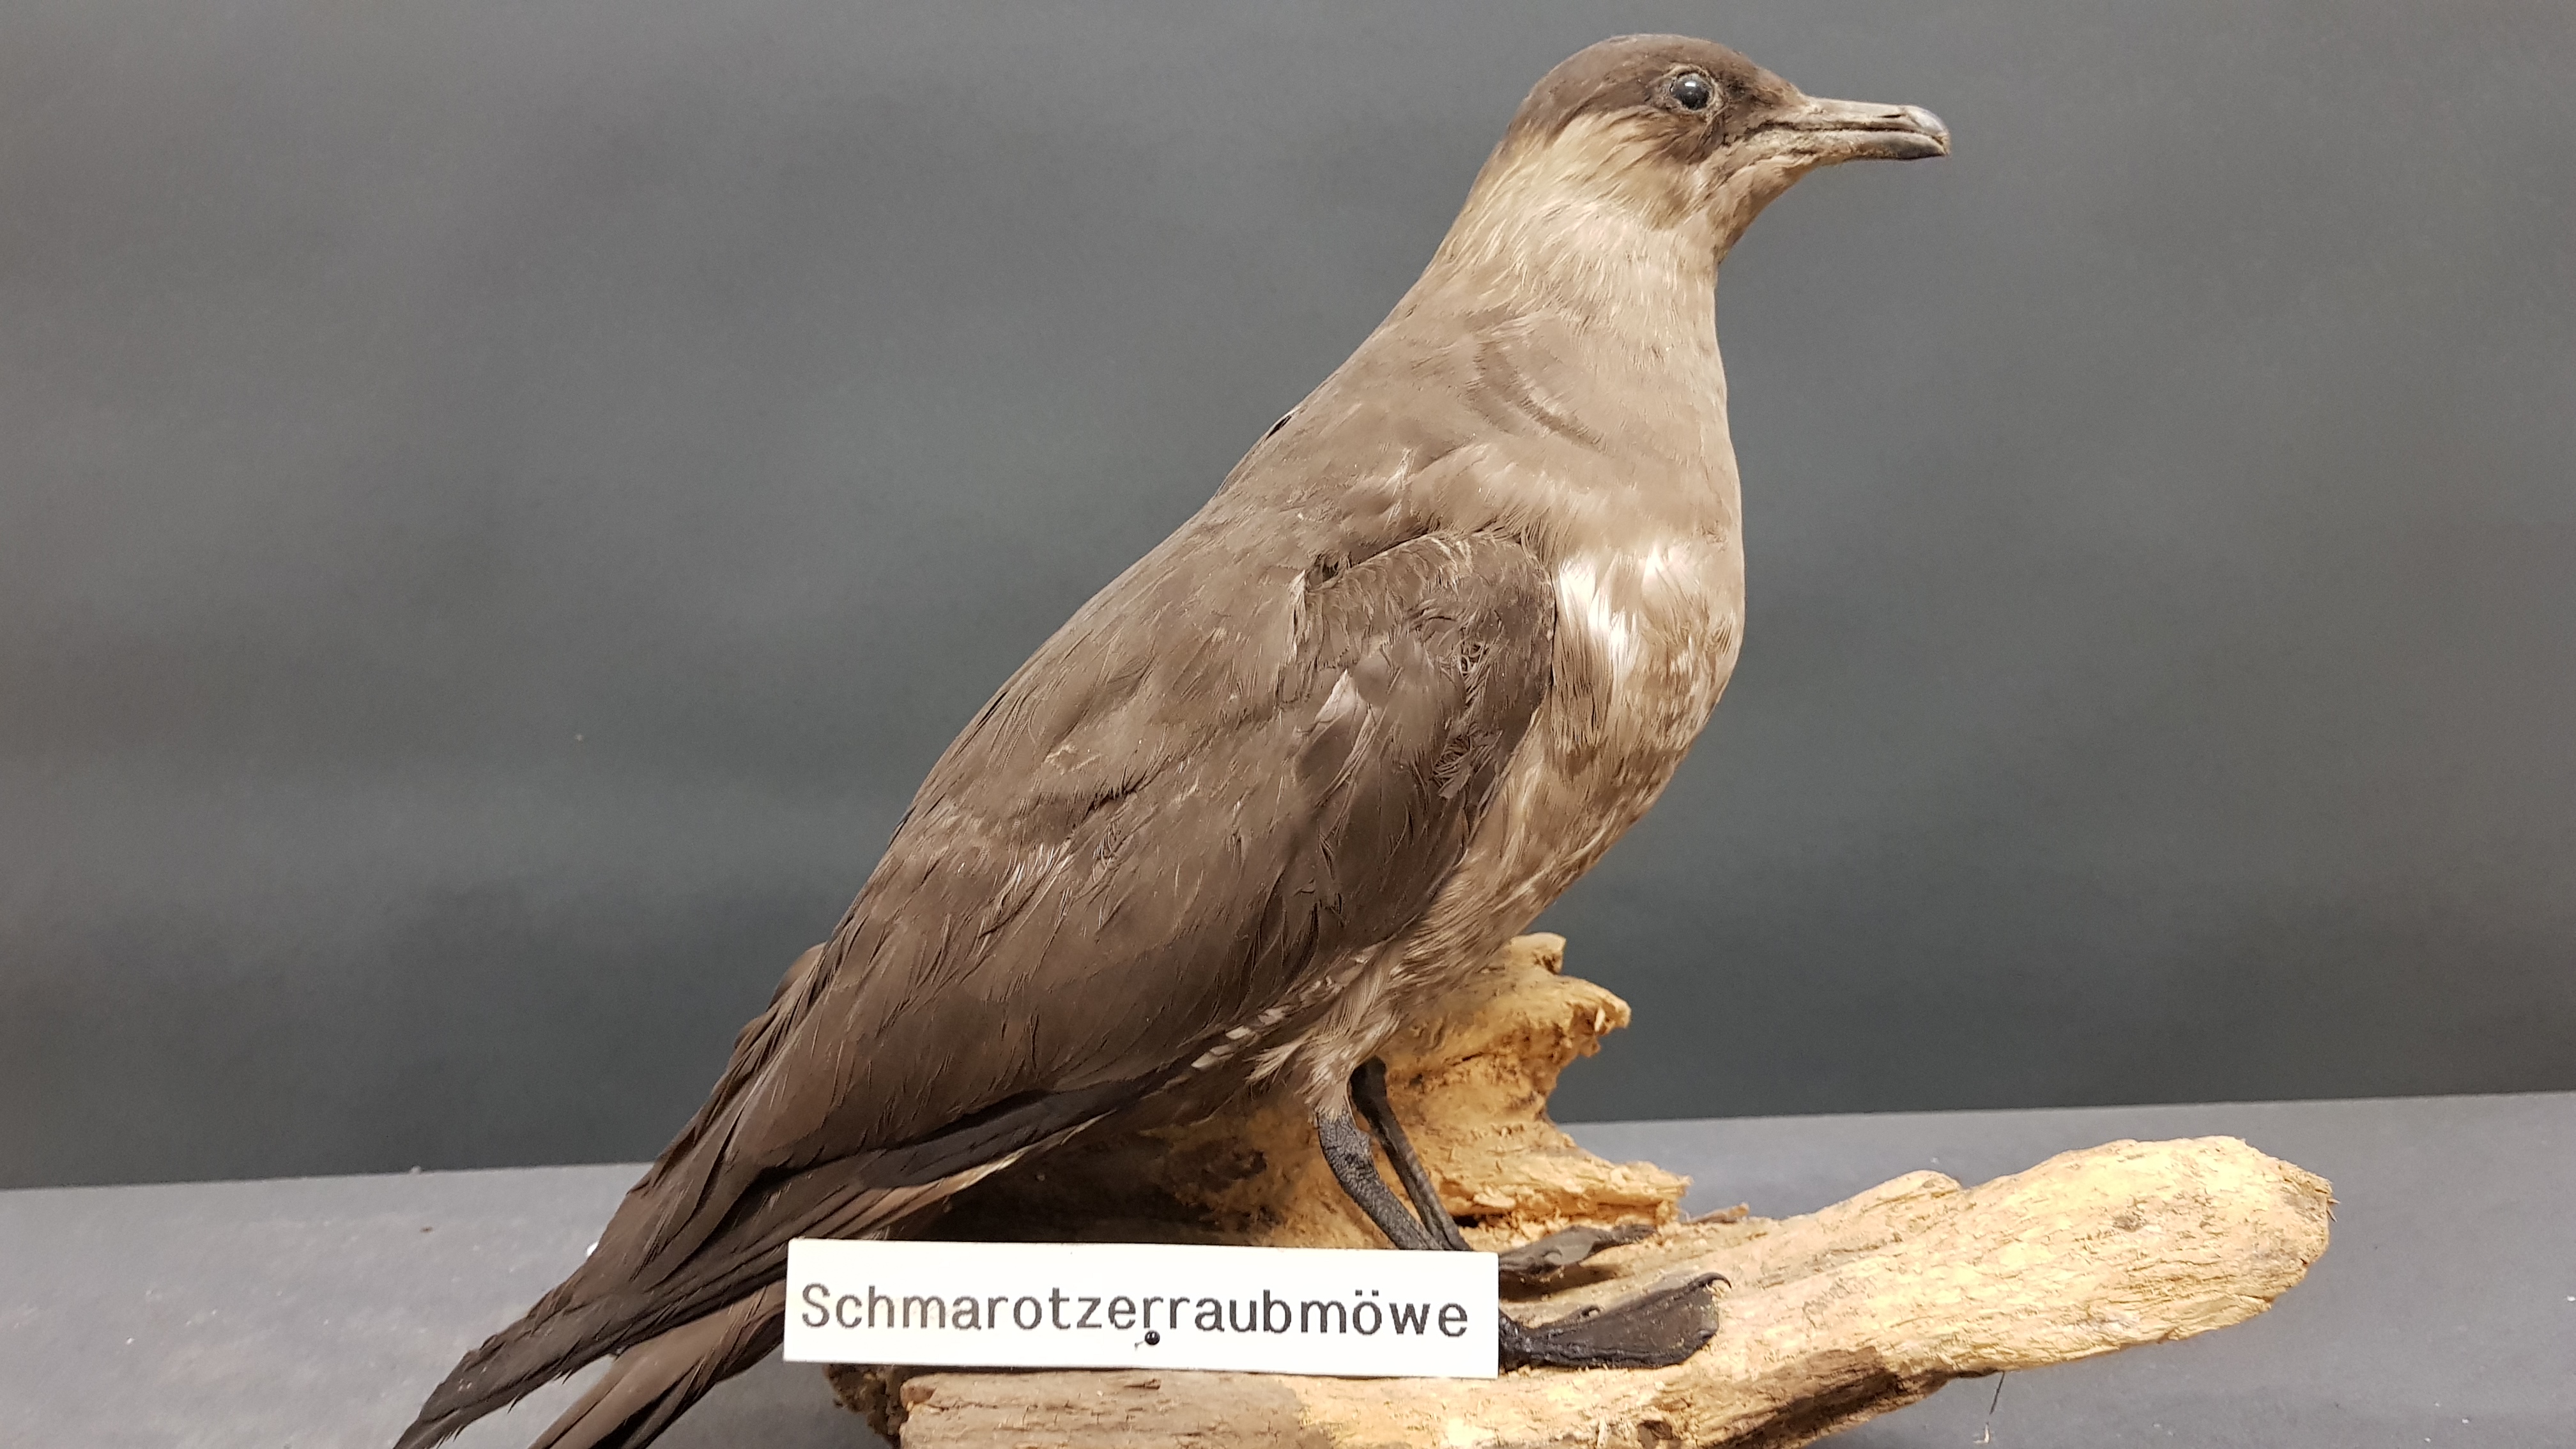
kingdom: Animalia
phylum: Chordata
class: Aves
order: Charadriiformes
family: Stercorariidae
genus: Stercorarius
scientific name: Stercorarius parasiticus
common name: Parasitic jaeger
